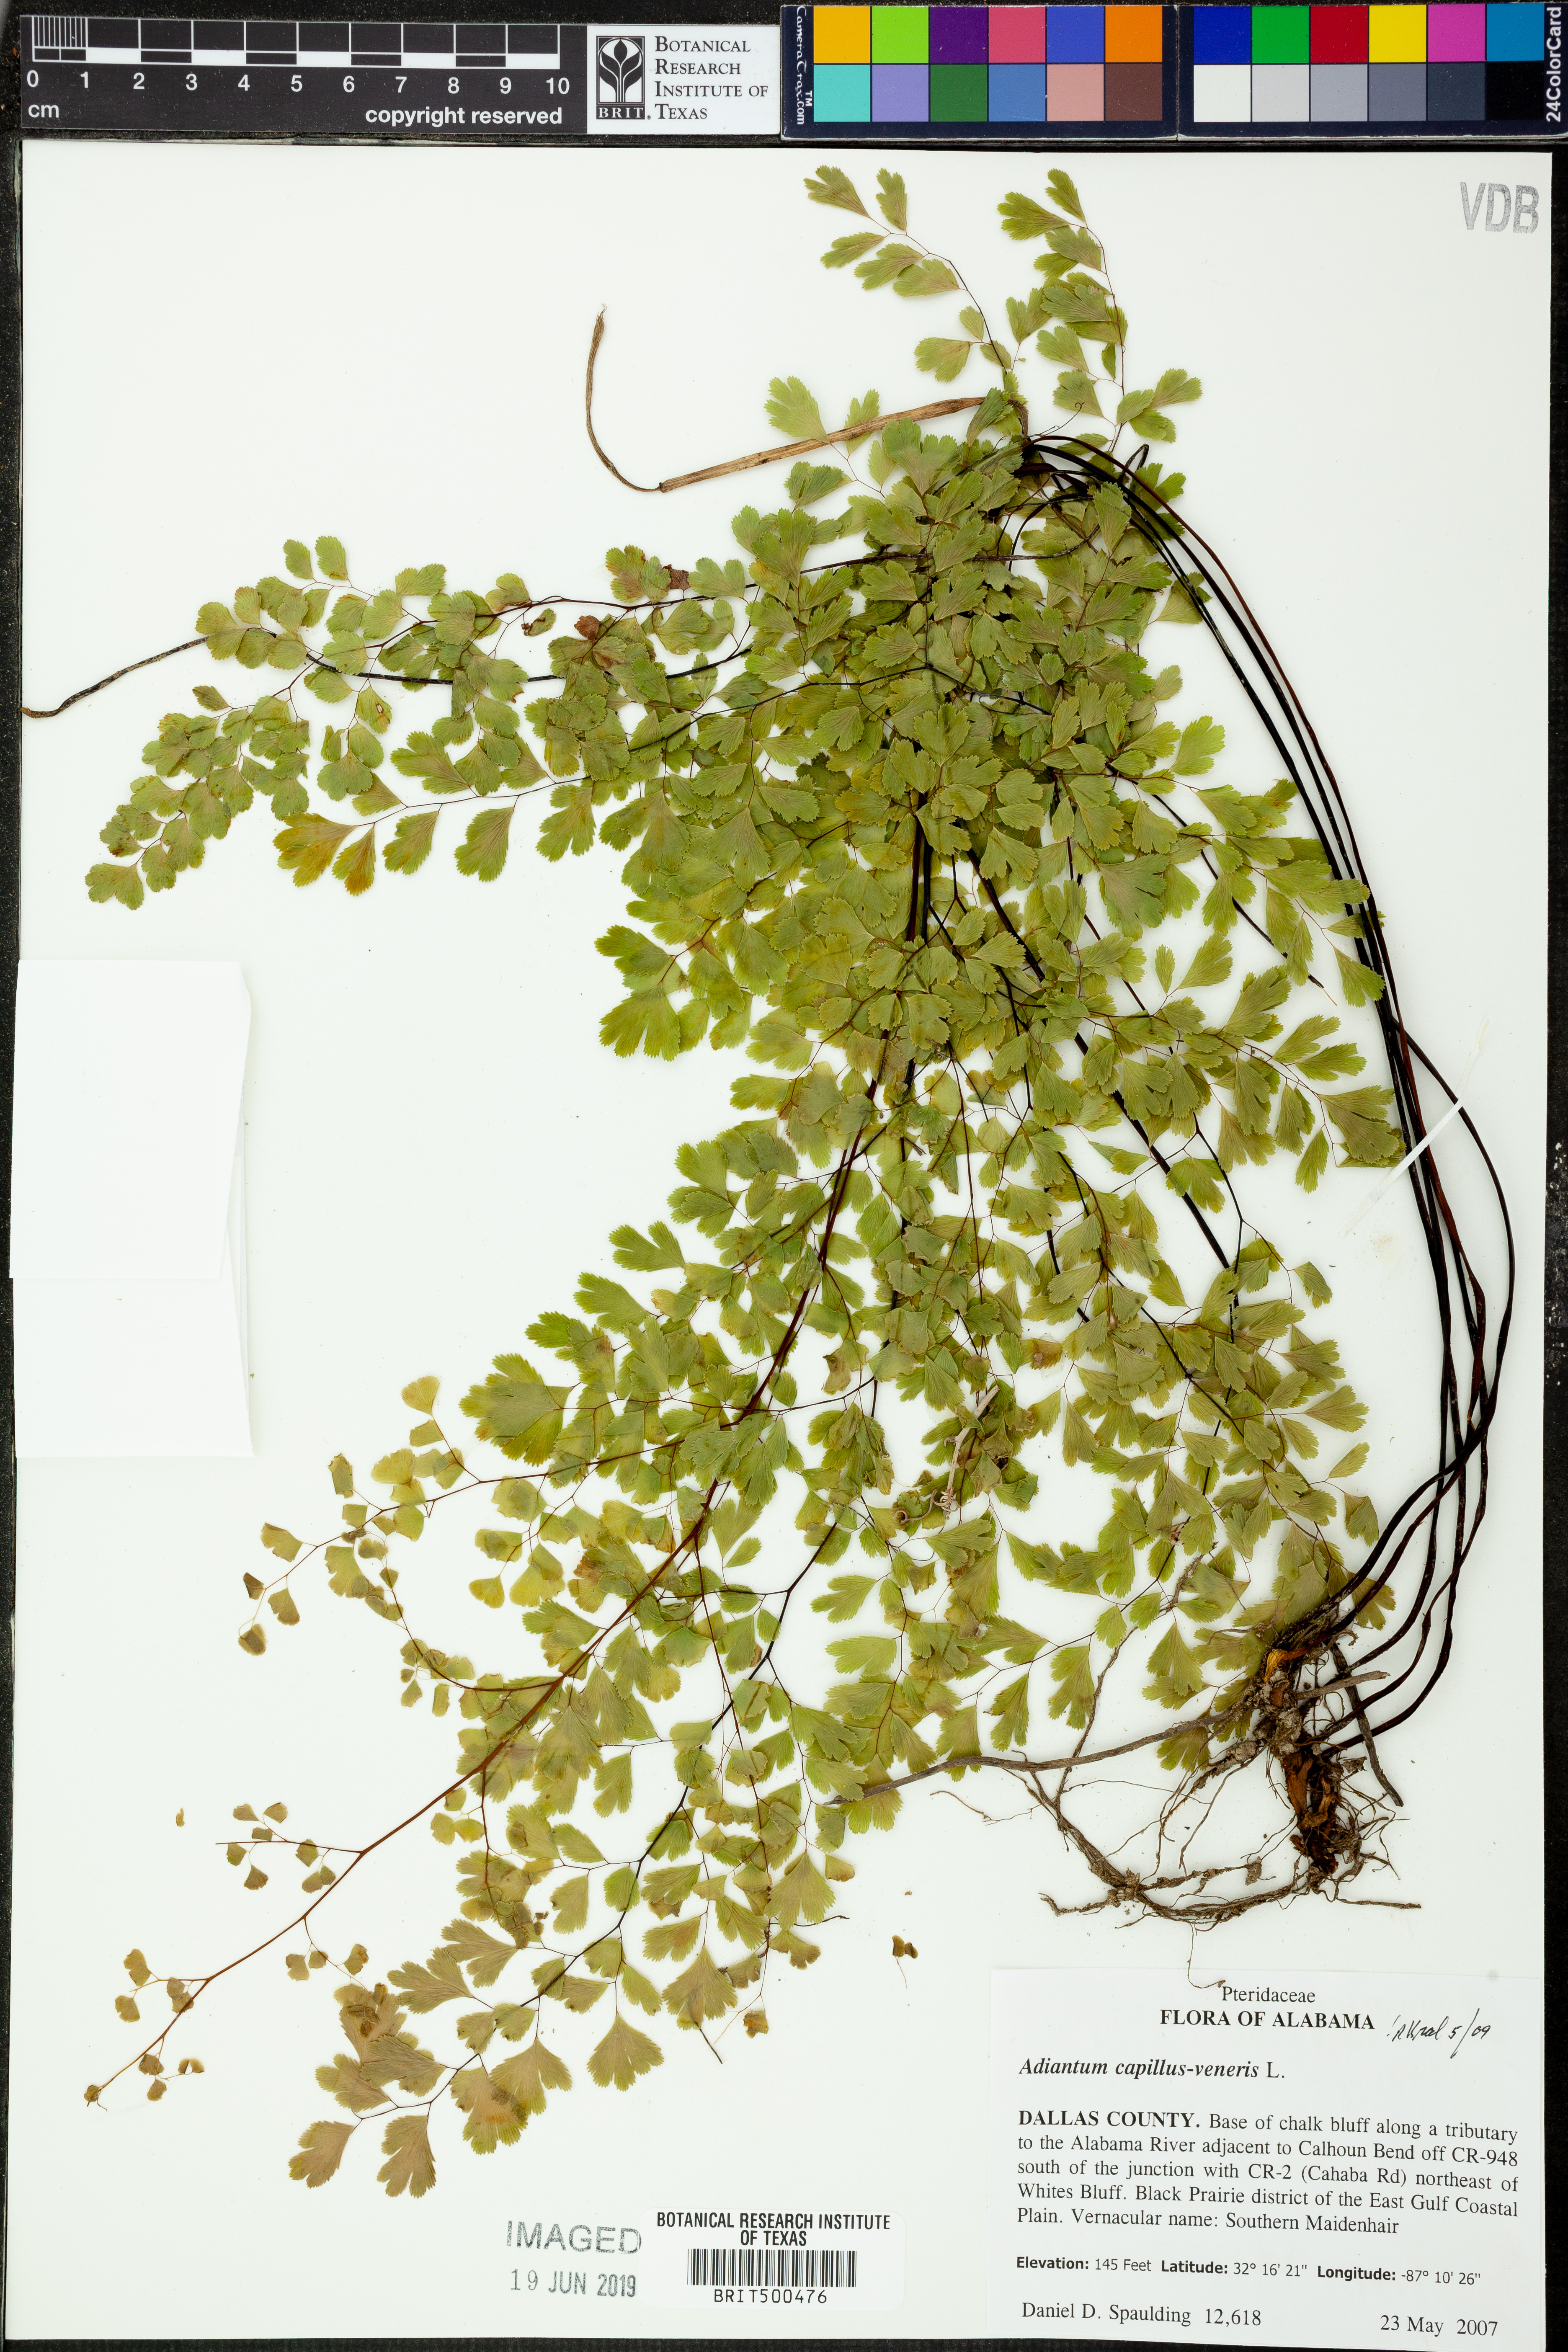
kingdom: Plantae
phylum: Tracheophyta
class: Polypodiopsida
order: Polypodiales
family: Pteridaceae
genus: Adiantum
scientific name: Adiantum capillus-veneris
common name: Maidenhair fern
